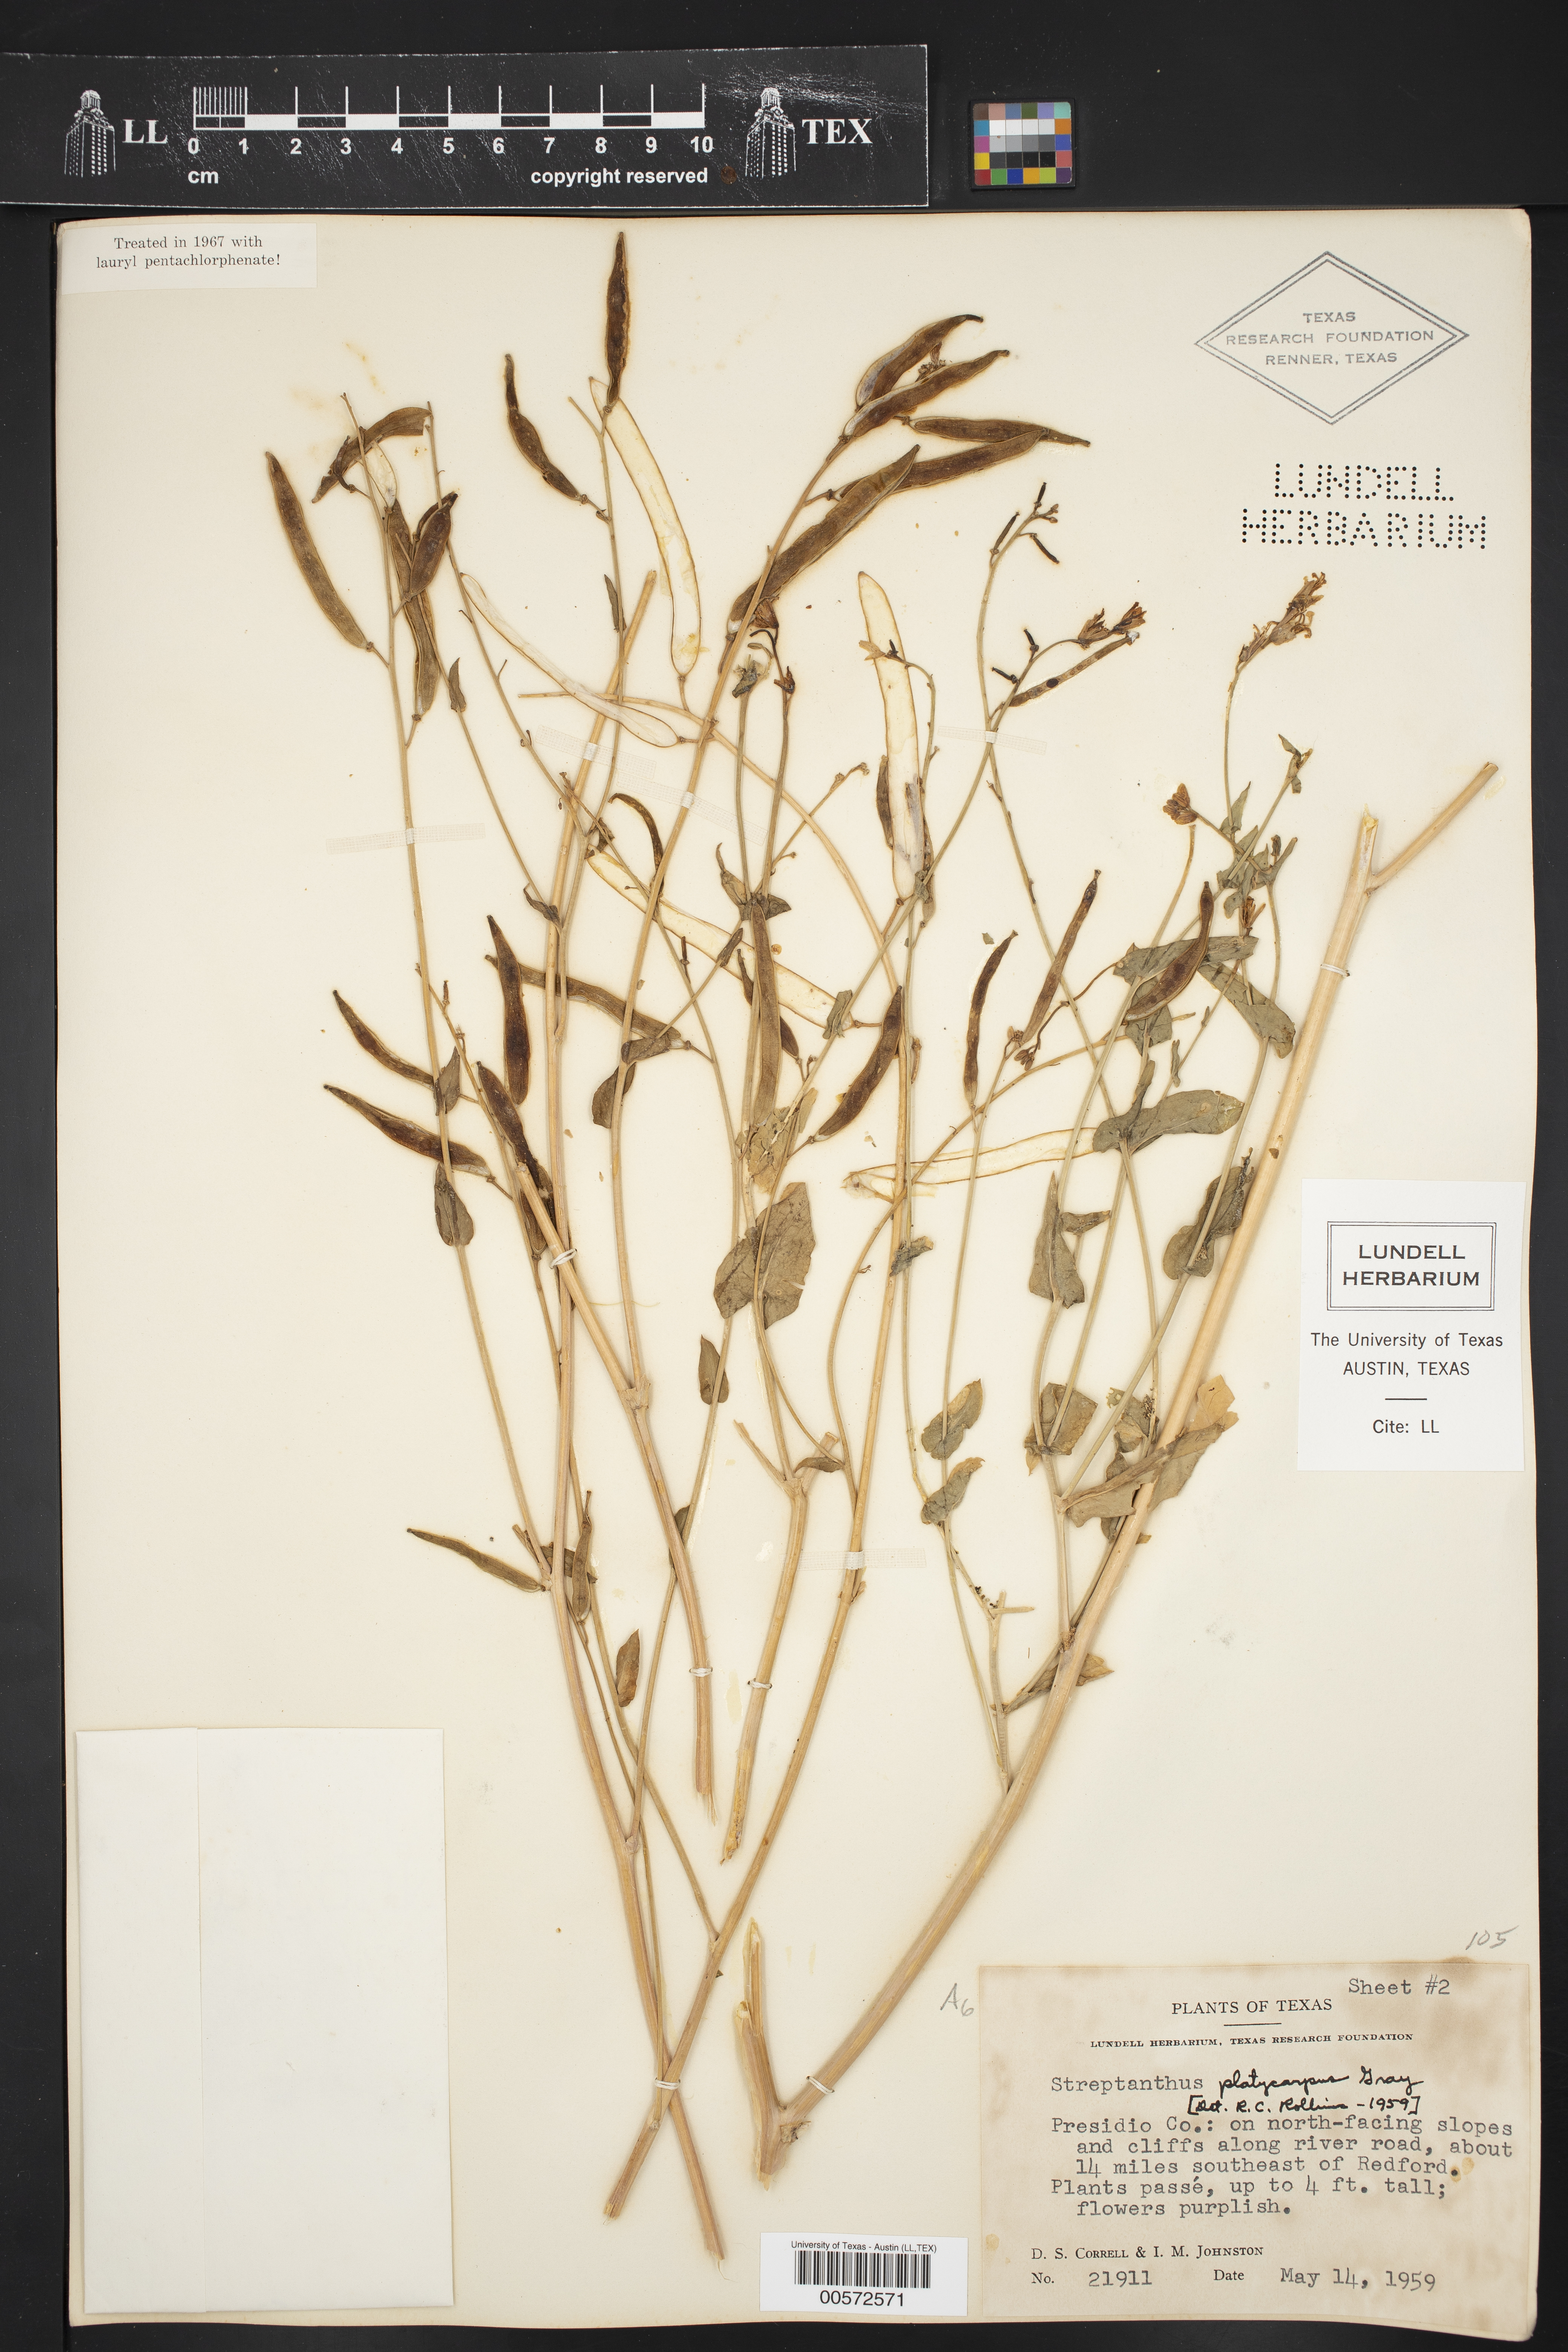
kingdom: Plantae
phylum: Tracheophyta
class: Magnoliopsida
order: Brassicales
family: Brassicaceae
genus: Streptanthus
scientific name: Streptanthus platycarpus
